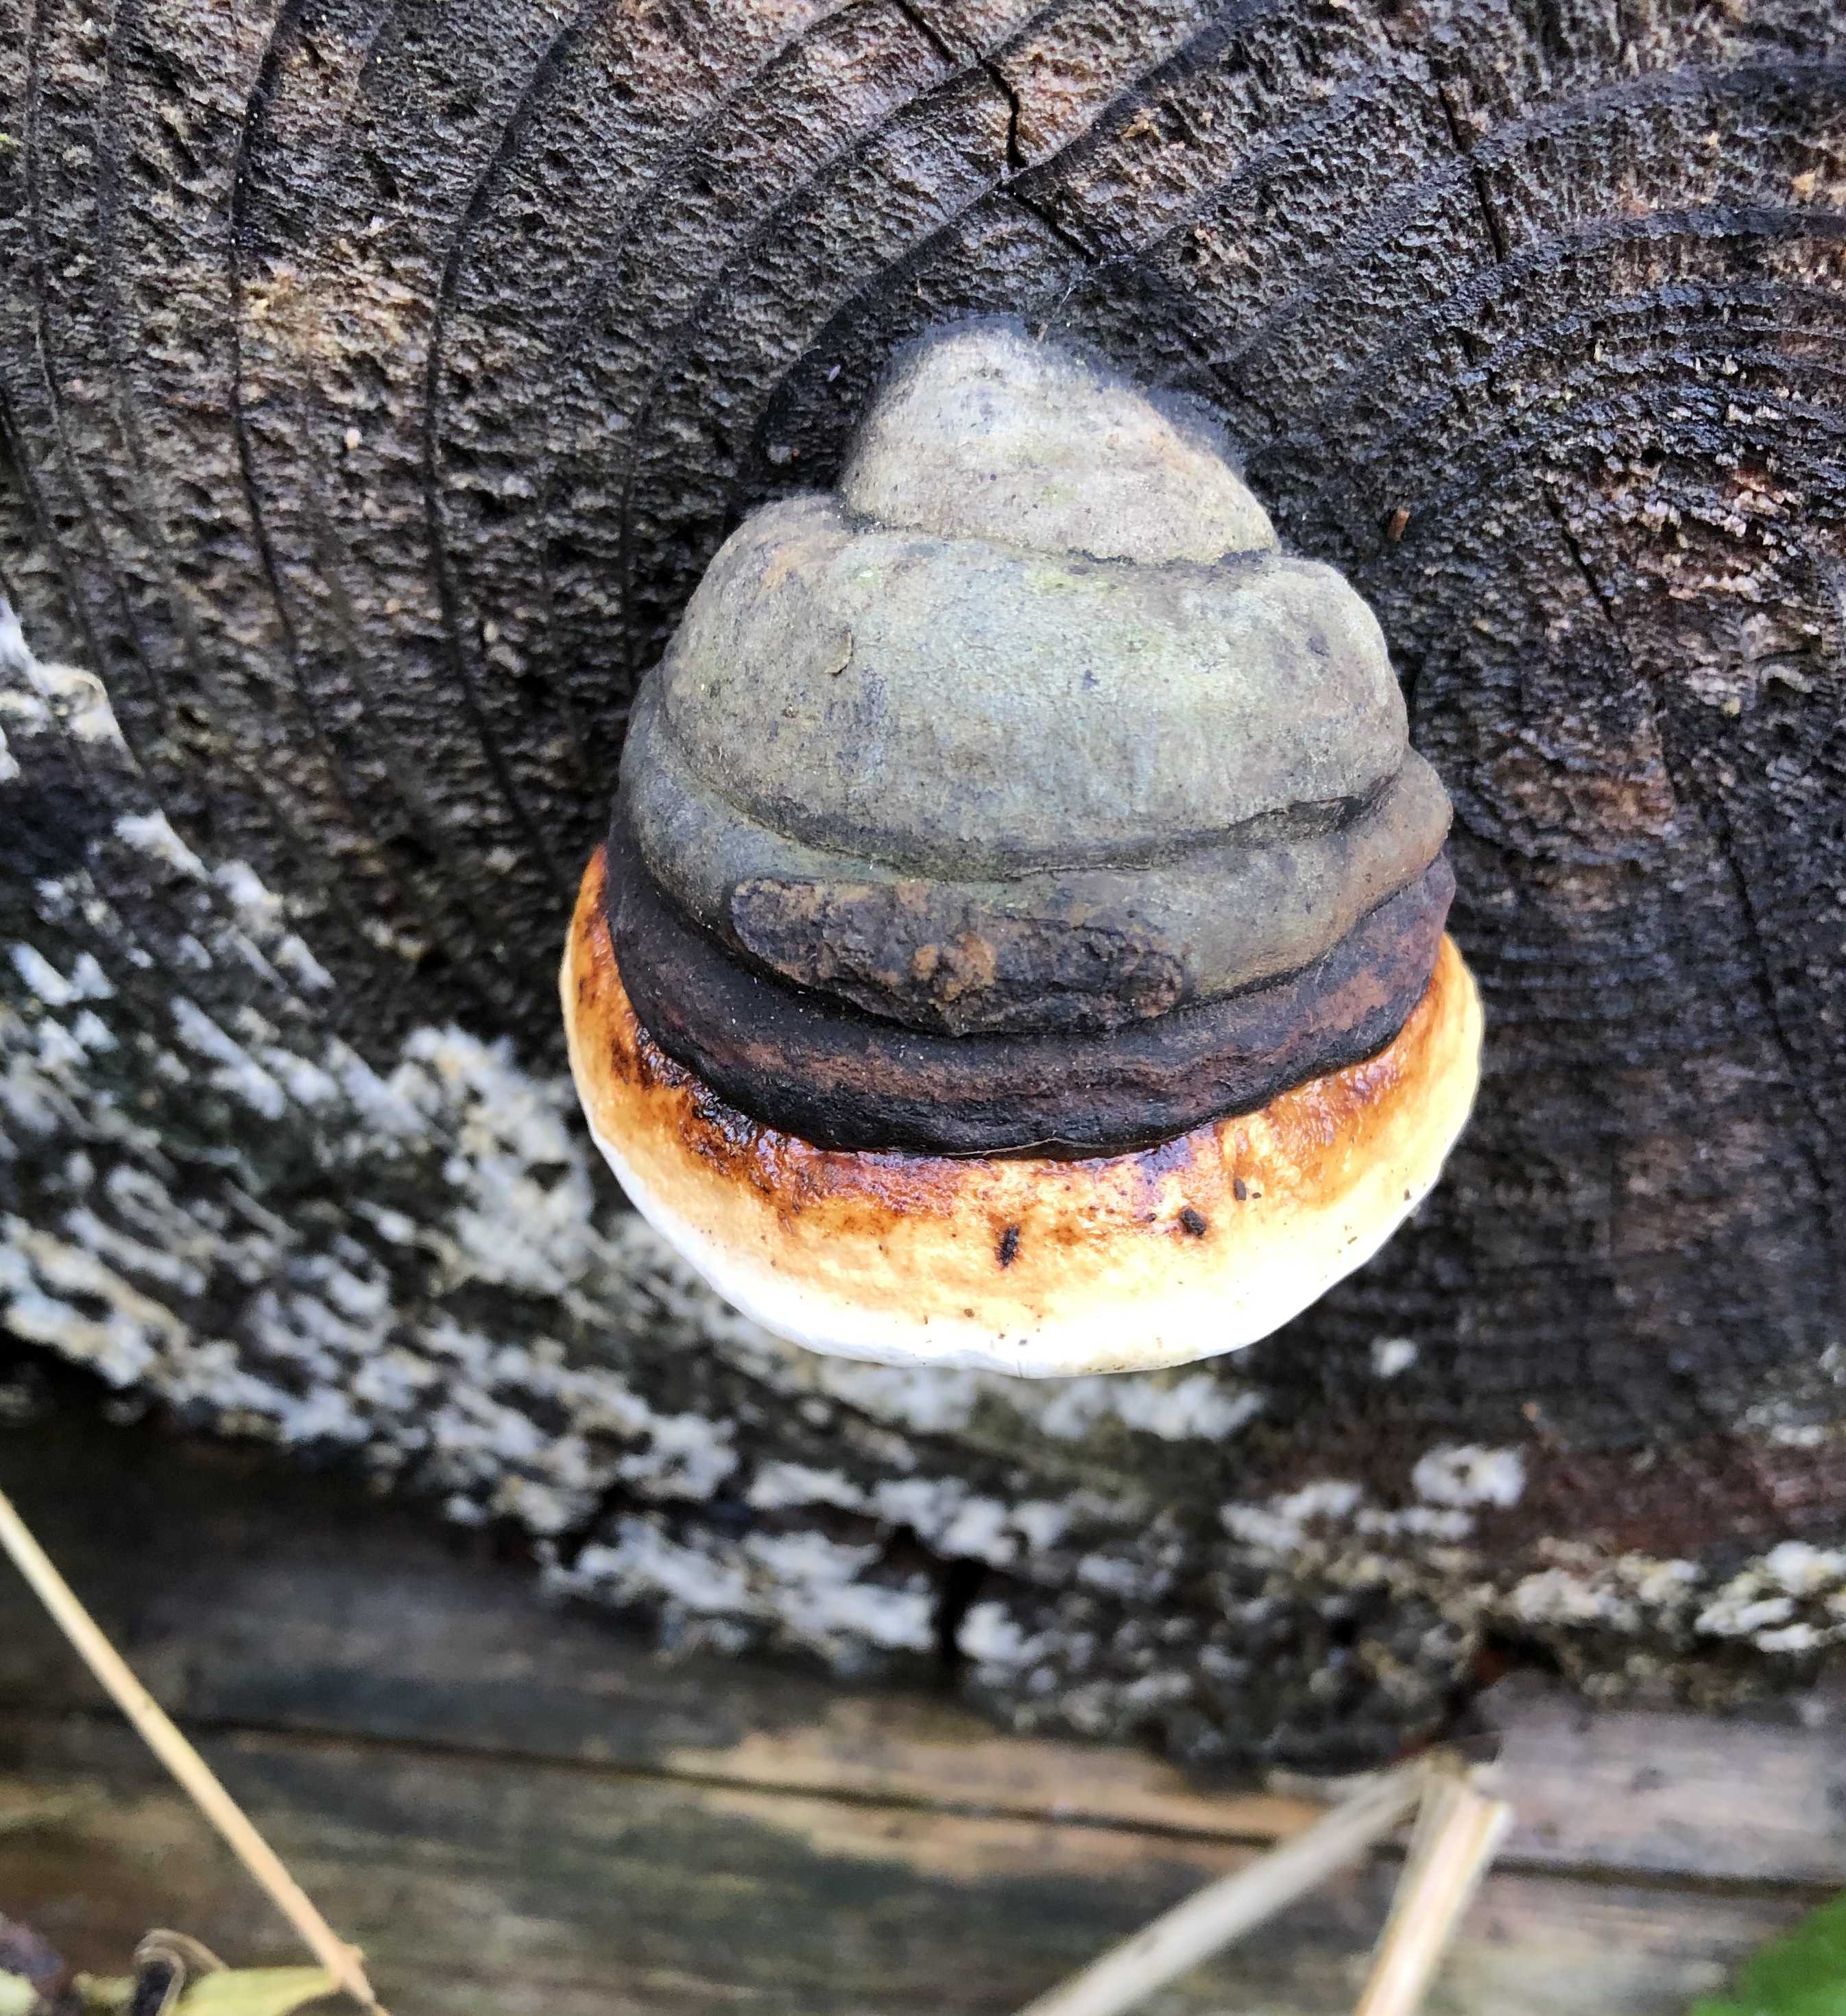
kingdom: Fungi
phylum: Basidiomycota
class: Agaricomycetes
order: Polyporales
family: Fomitopsidaceae
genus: Fomitopsis
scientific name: Fomitopsis pinicola
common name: randbæltet hovporesvamp
